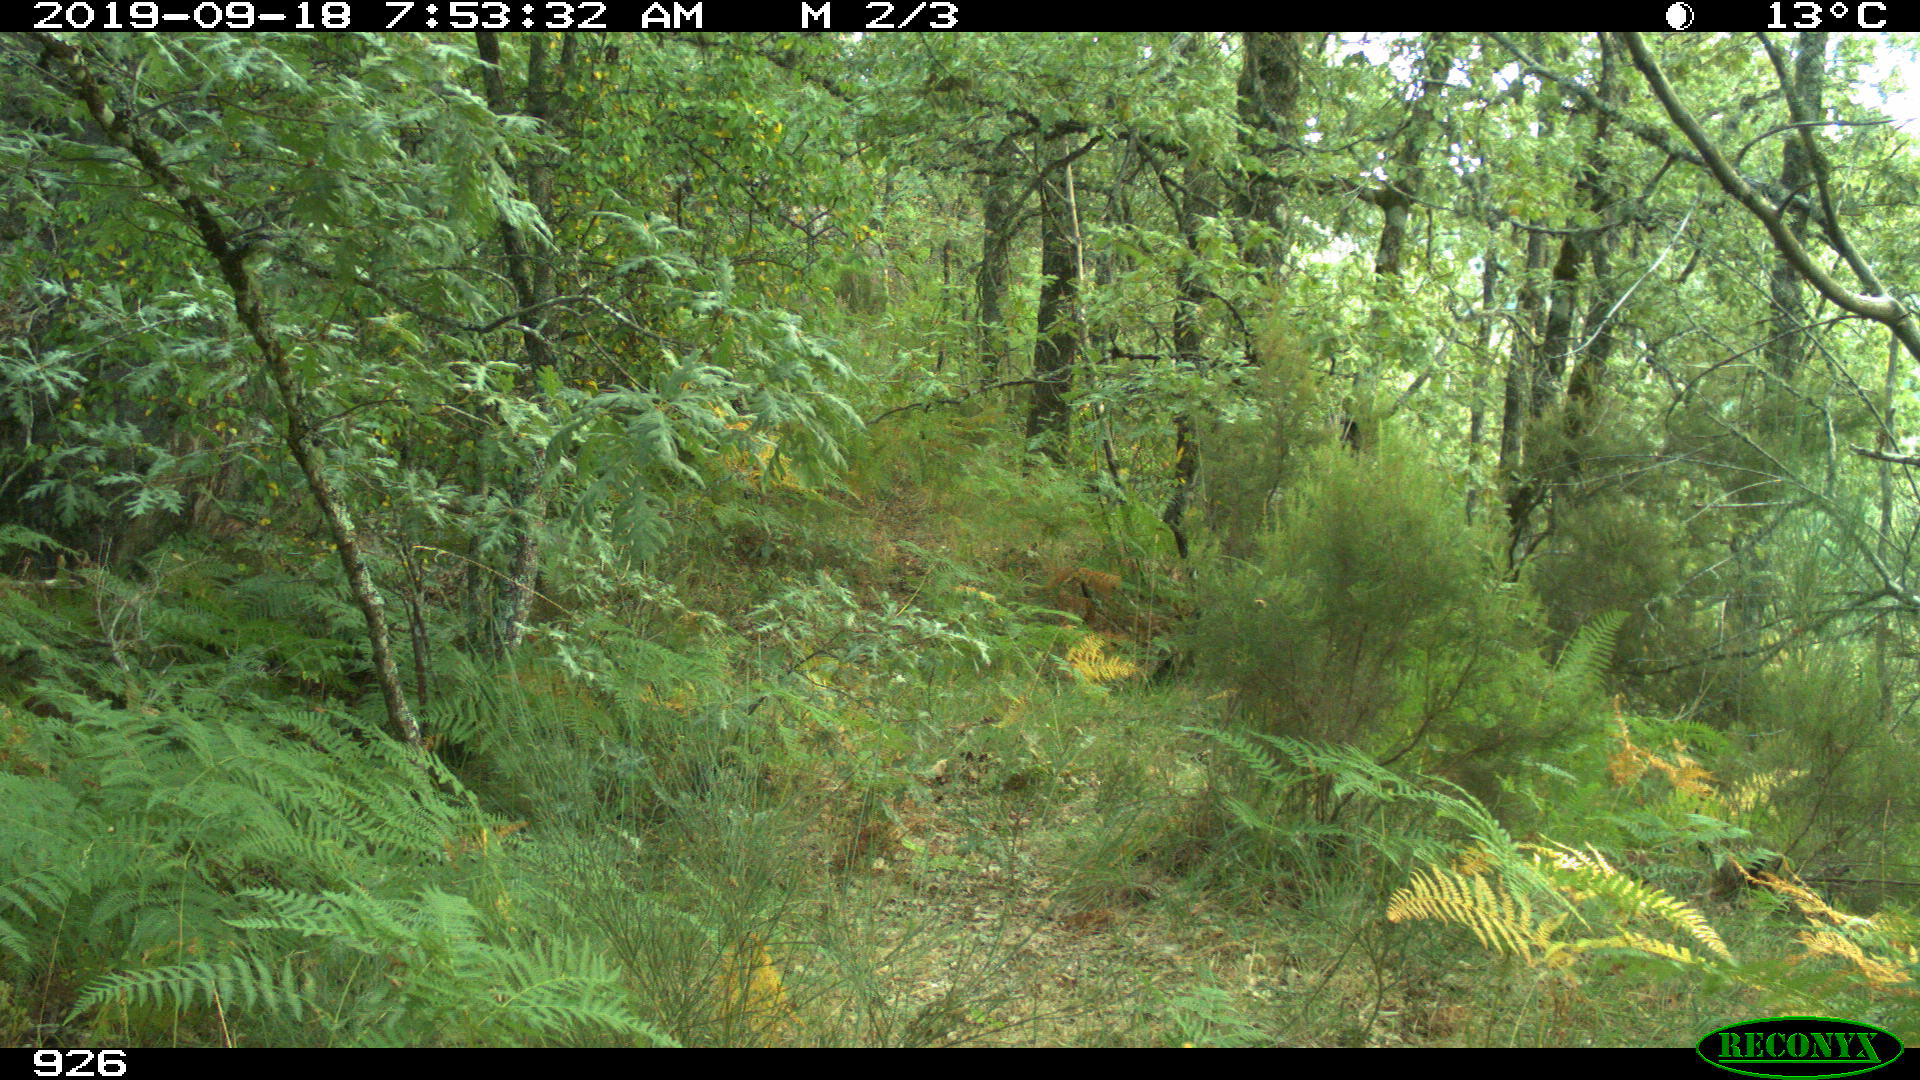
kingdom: Animalia
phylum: Chordata
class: Mammalia
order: Artiodactyla
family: Suidae
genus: Sus
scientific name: Sus scrofa
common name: Wild boar
